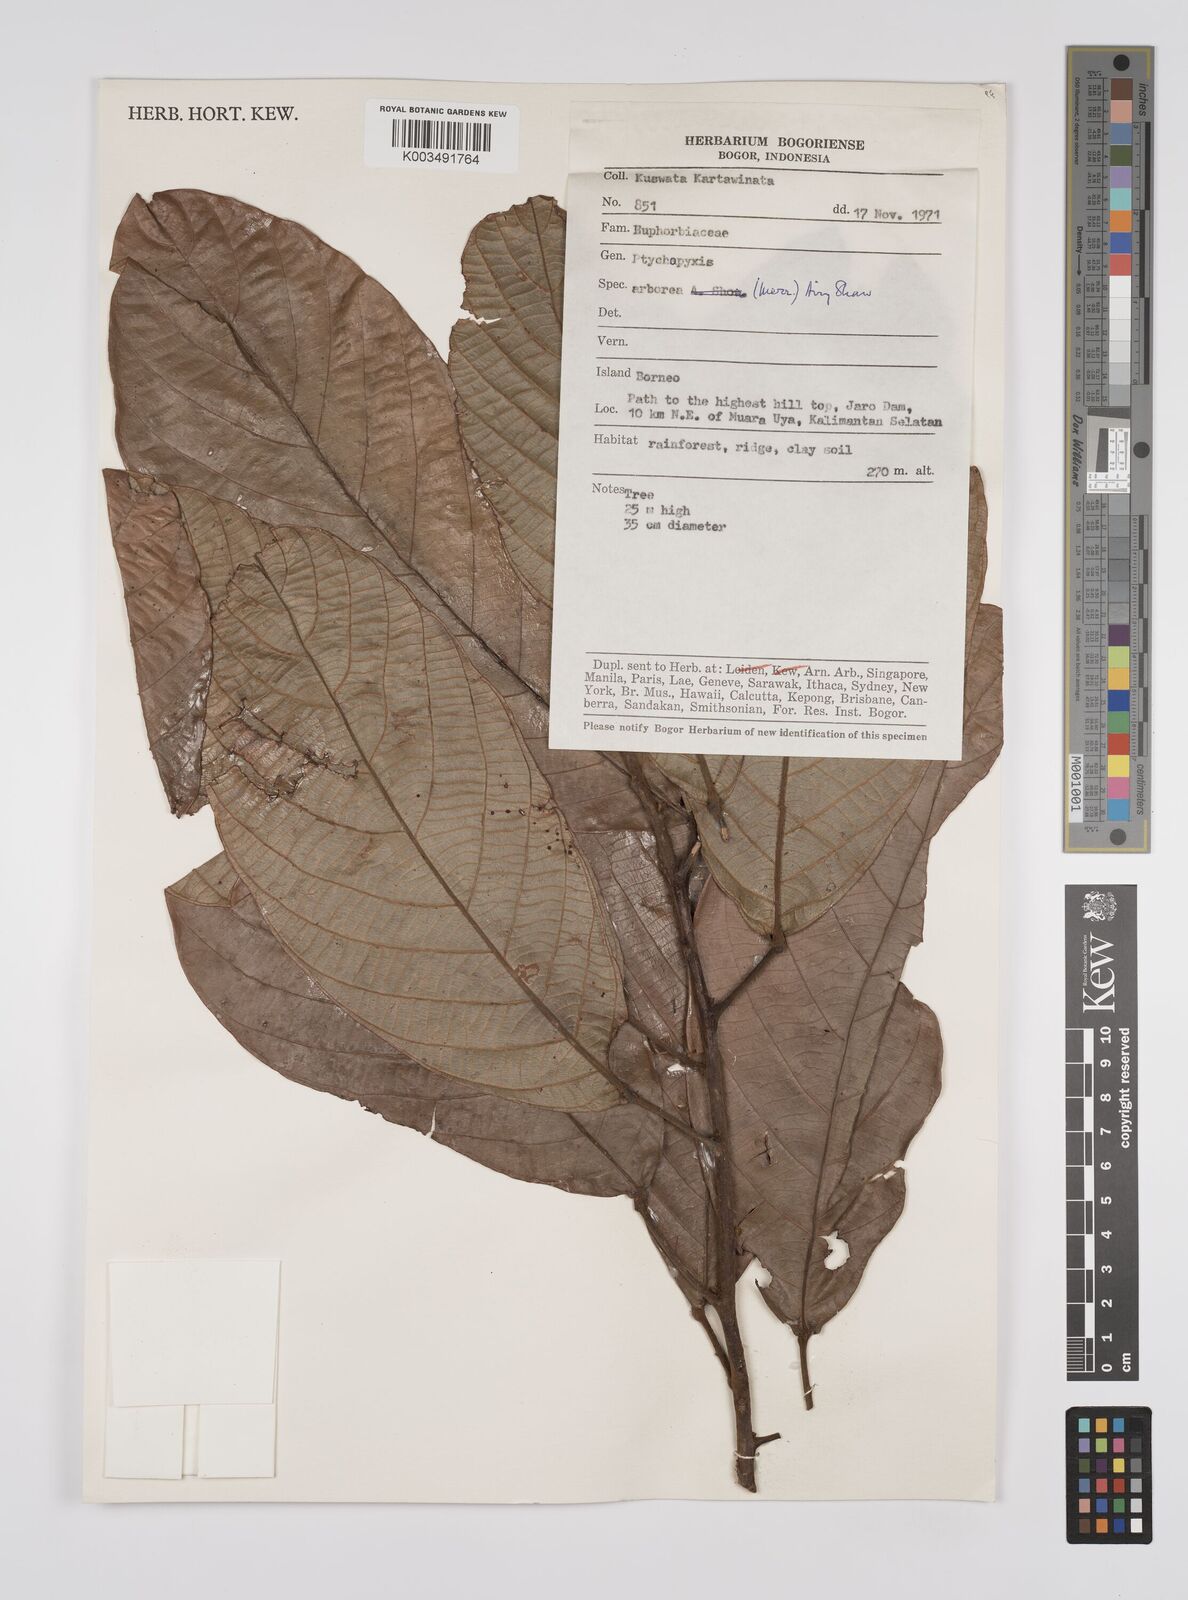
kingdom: Plantae
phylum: Tracheophyta
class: Magnoliopsida
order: Malpighiales
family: Euphorbiaceae
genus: Ptychopyxis
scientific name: Ptychopyxis arborea
